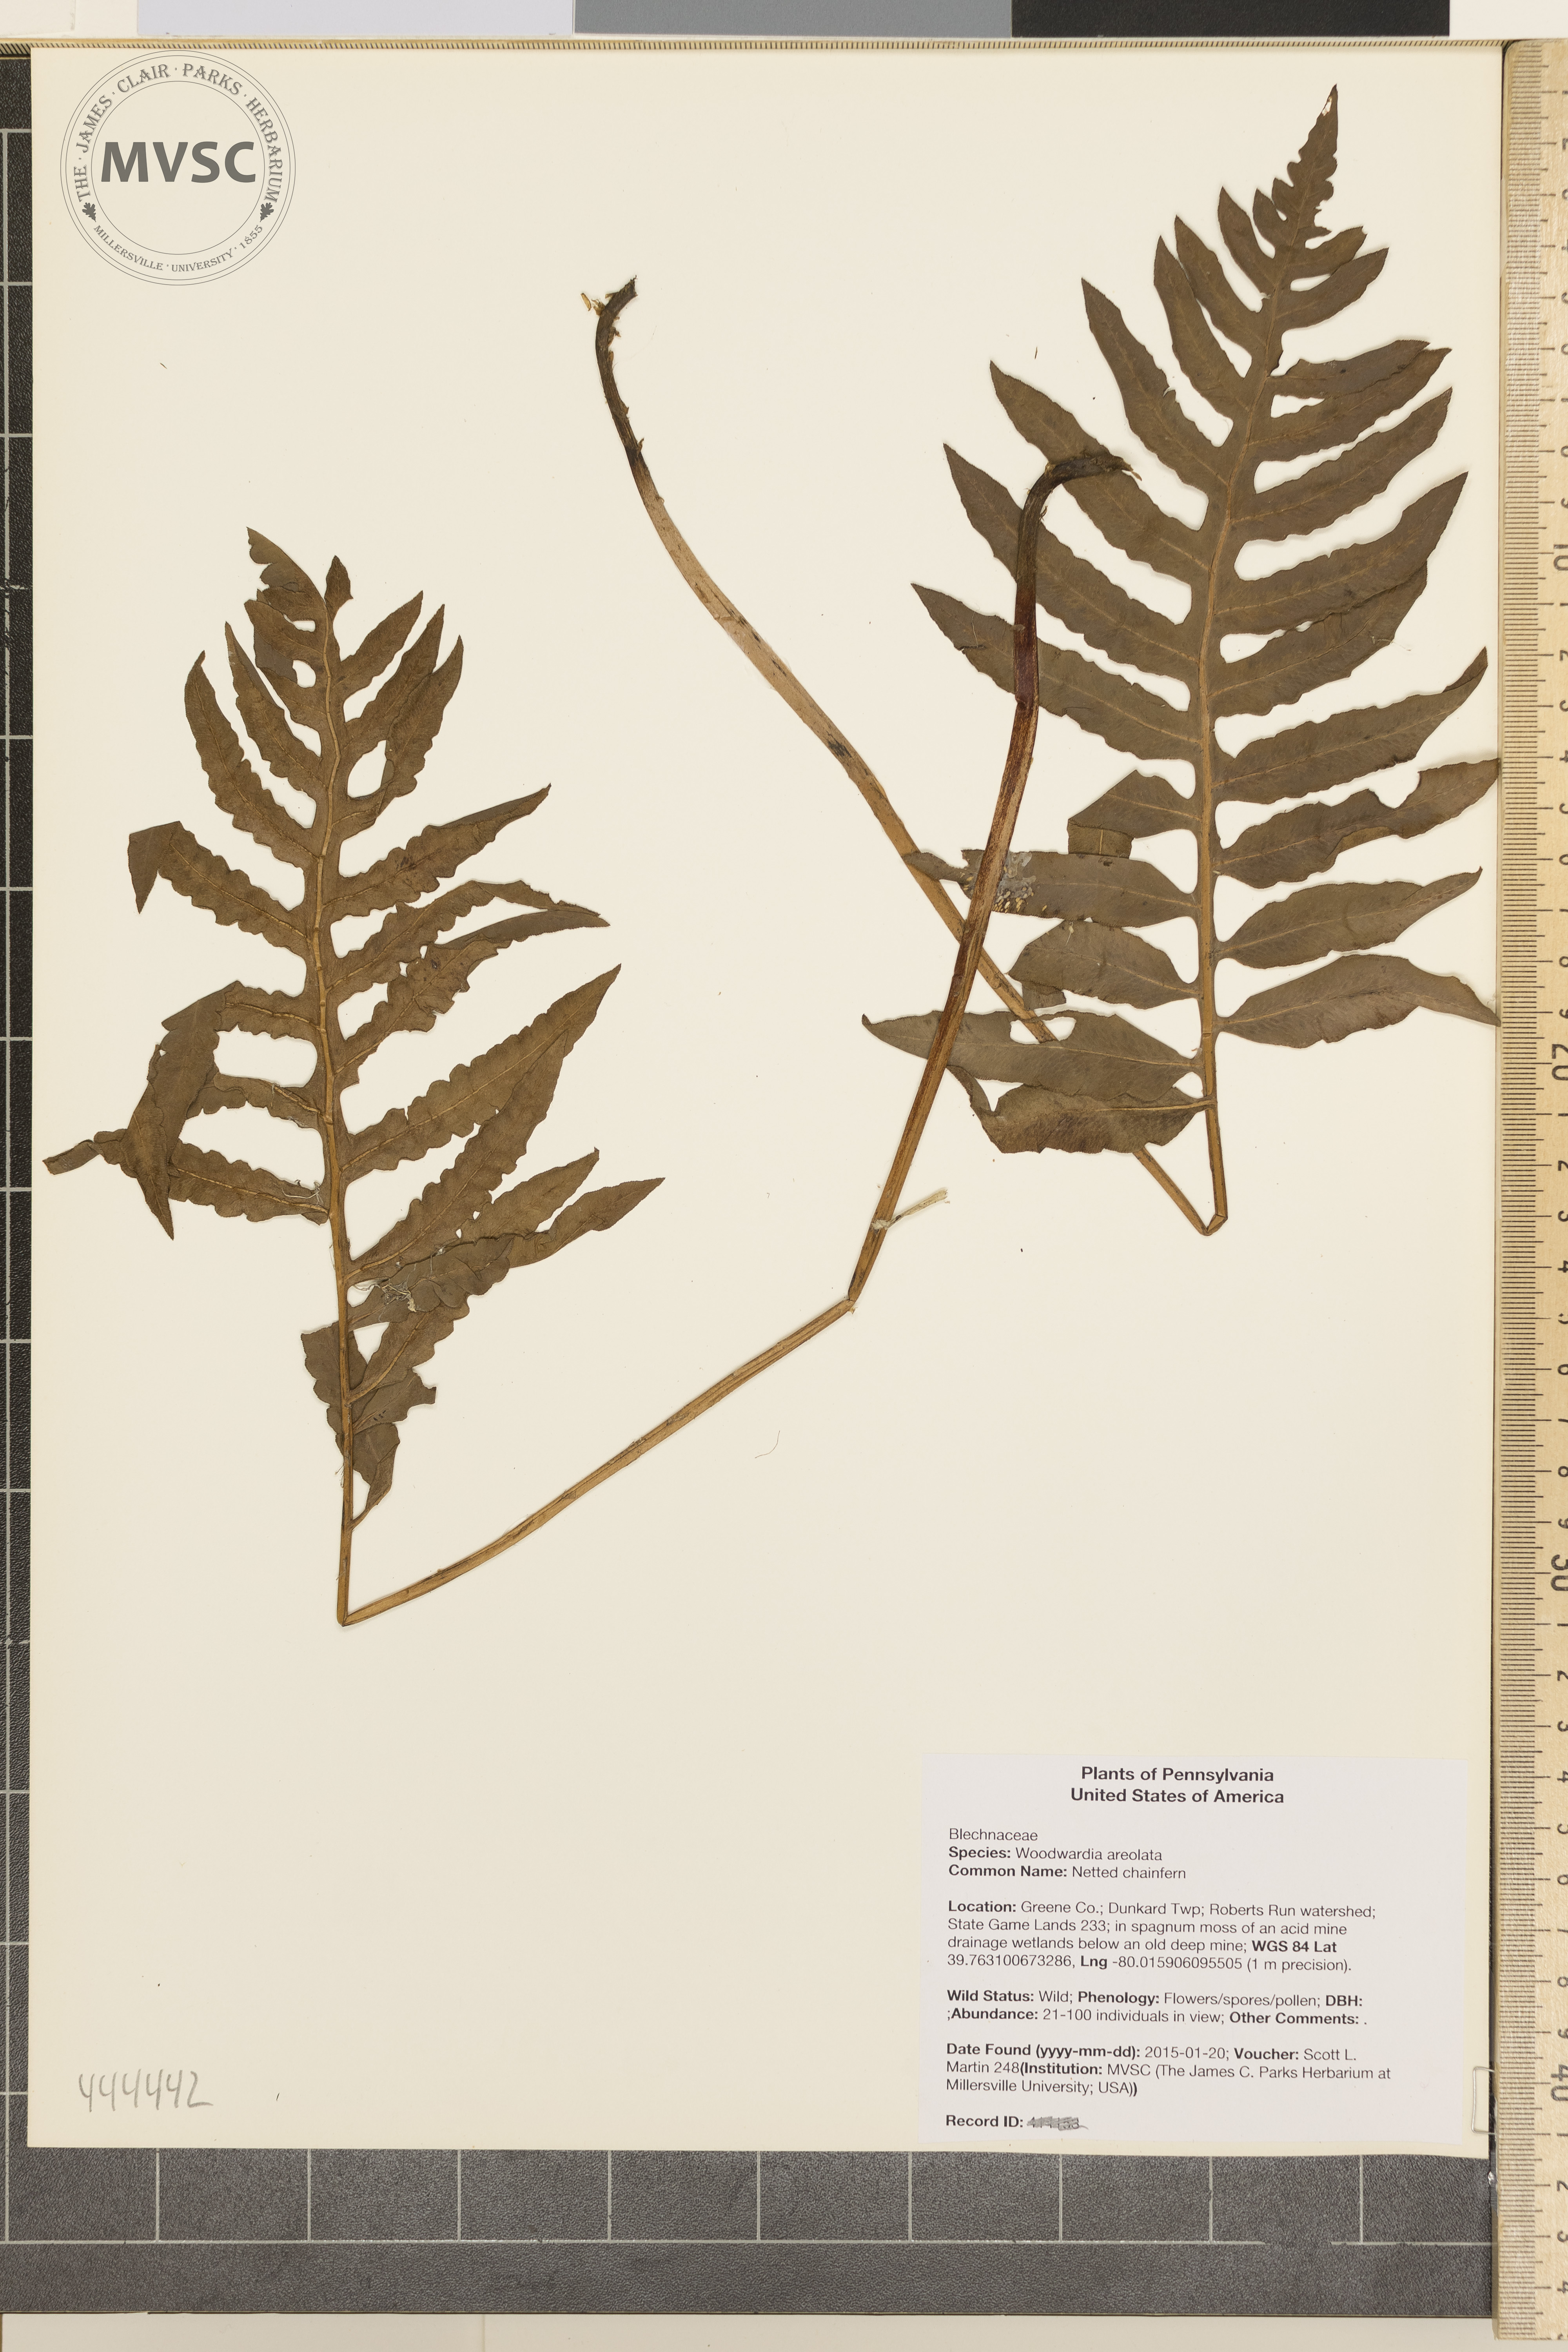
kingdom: Plantae
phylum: Tracheophyta
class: Polypodiopsida
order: Polypodiales
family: Blechnaceae
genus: Lorinseria
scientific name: Lorinseria areolata
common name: Netted chainfern
